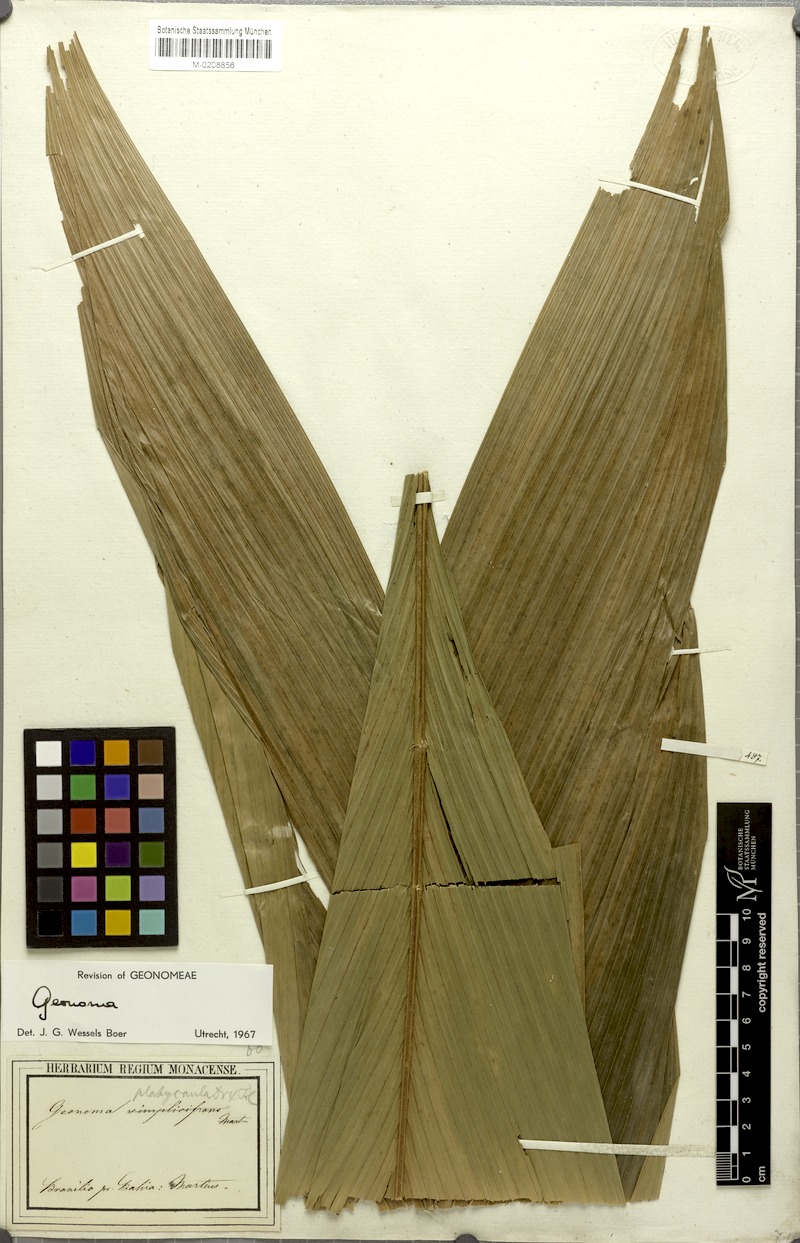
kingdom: Plantae
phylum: Tracheophyta
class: Liliopsida
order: Arecales
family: Arecaceae
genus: Geonoma
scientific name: Geonoma pohliana
